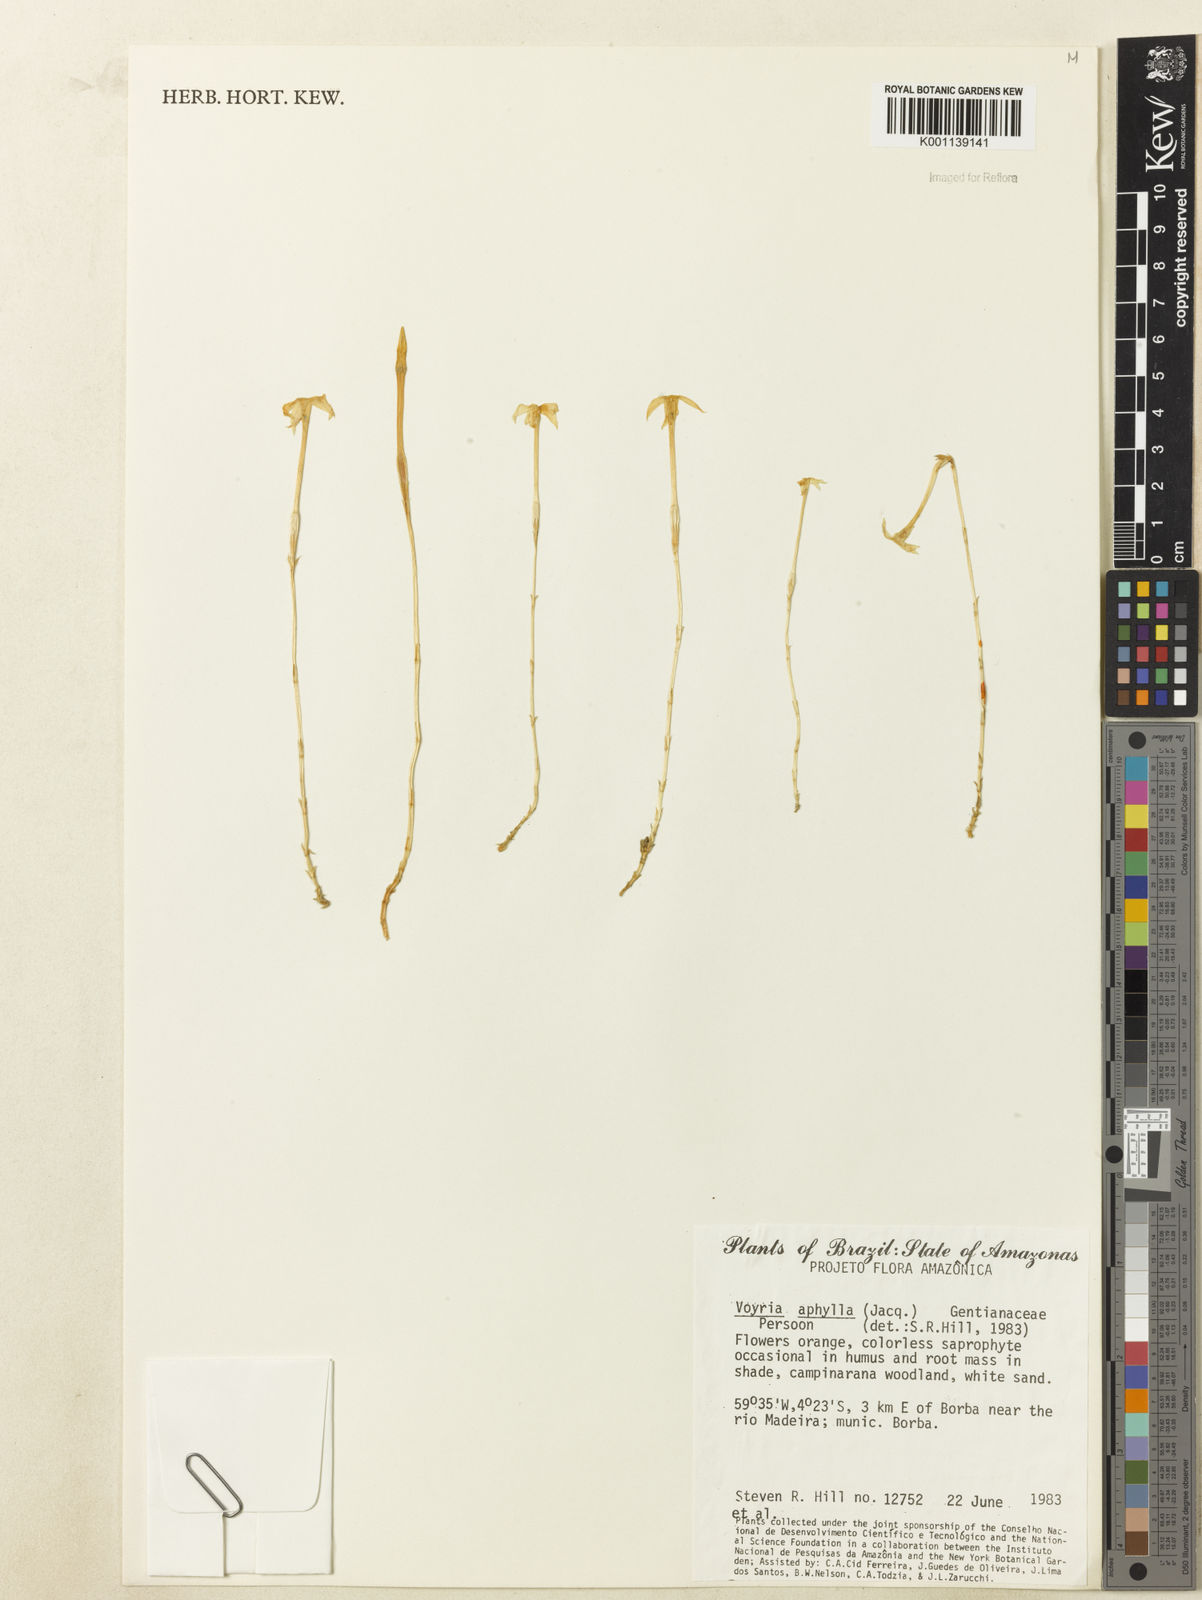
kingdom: Plantae
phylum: Tracheophyta
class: Magnoliopsida
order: Gentianales
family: Gentianaceae
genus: Voyria
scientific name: Voyria aphylla
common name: Leafless ghost plant
